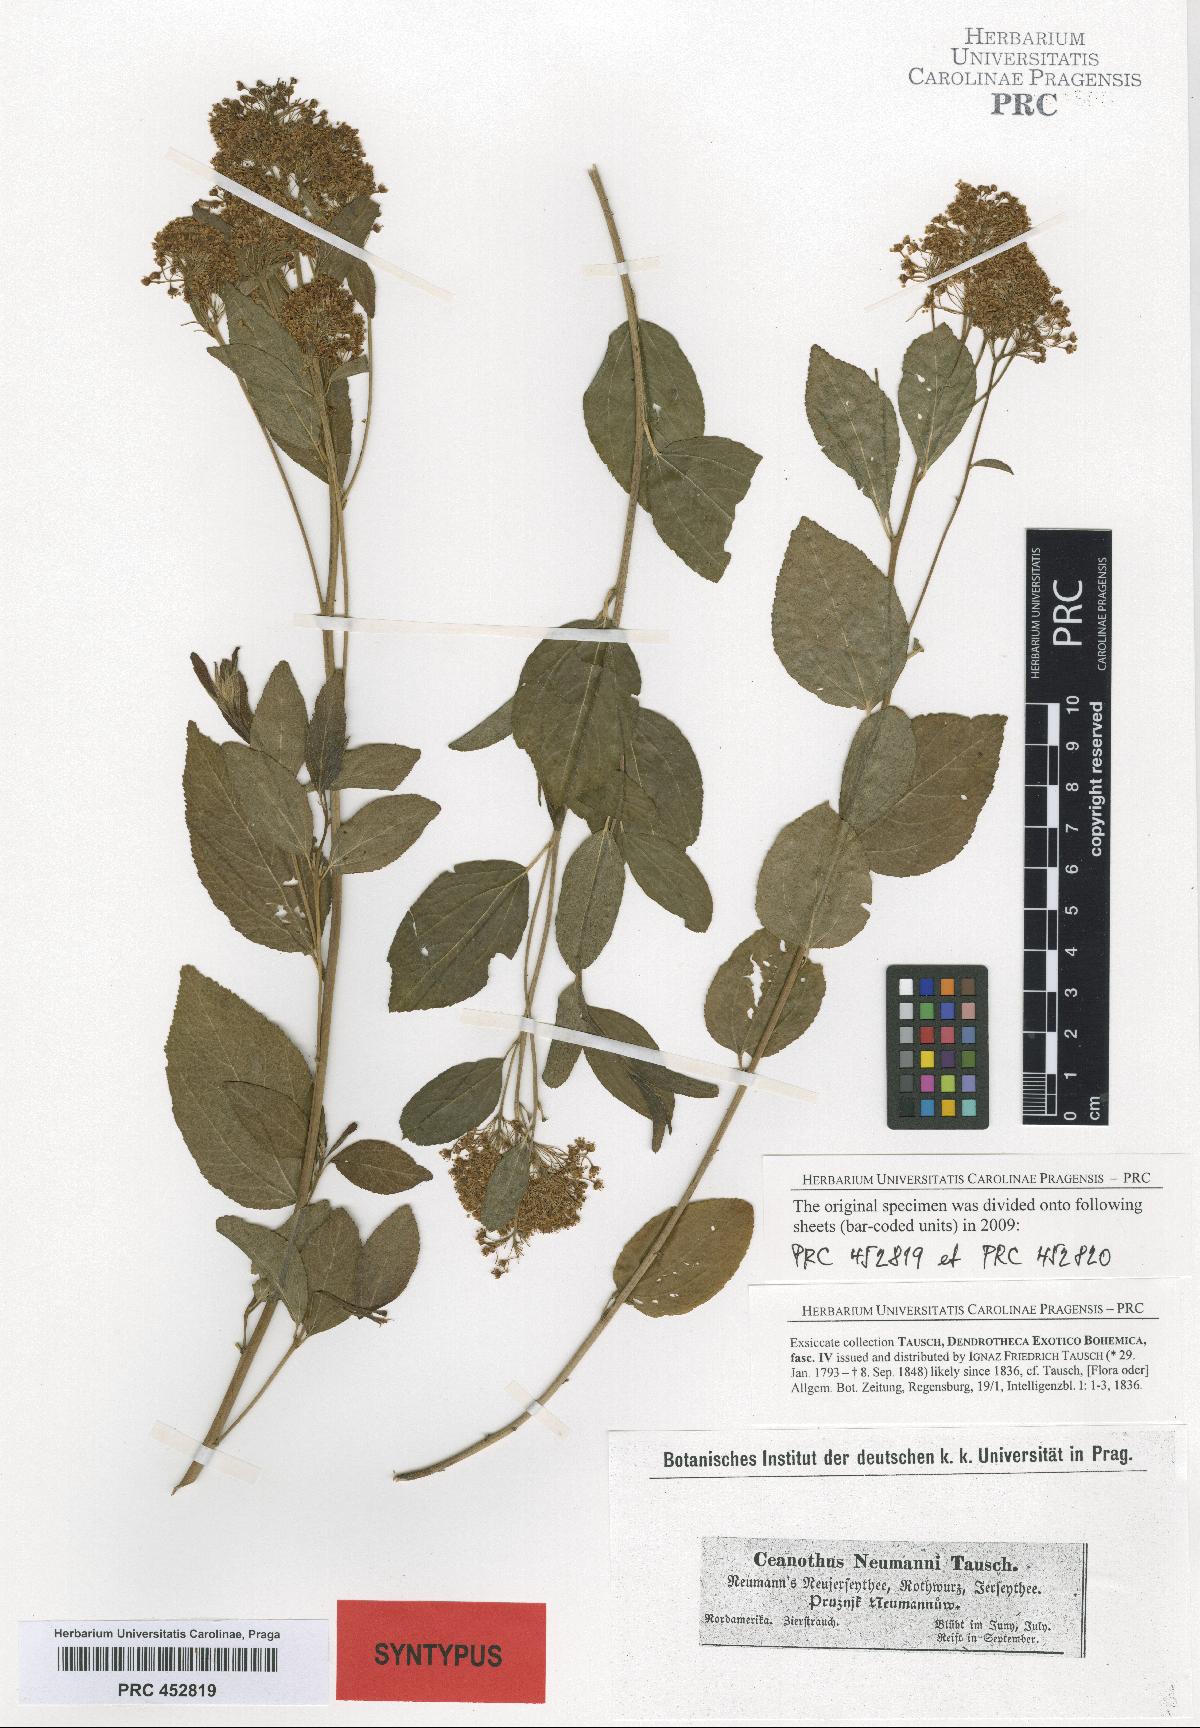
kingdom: Plantae
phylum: Tracheophyta
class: Magnoliopsida
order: Rosales
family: Rhamnaceae
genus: Ceanothus
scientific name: Ceanothus neumannii
